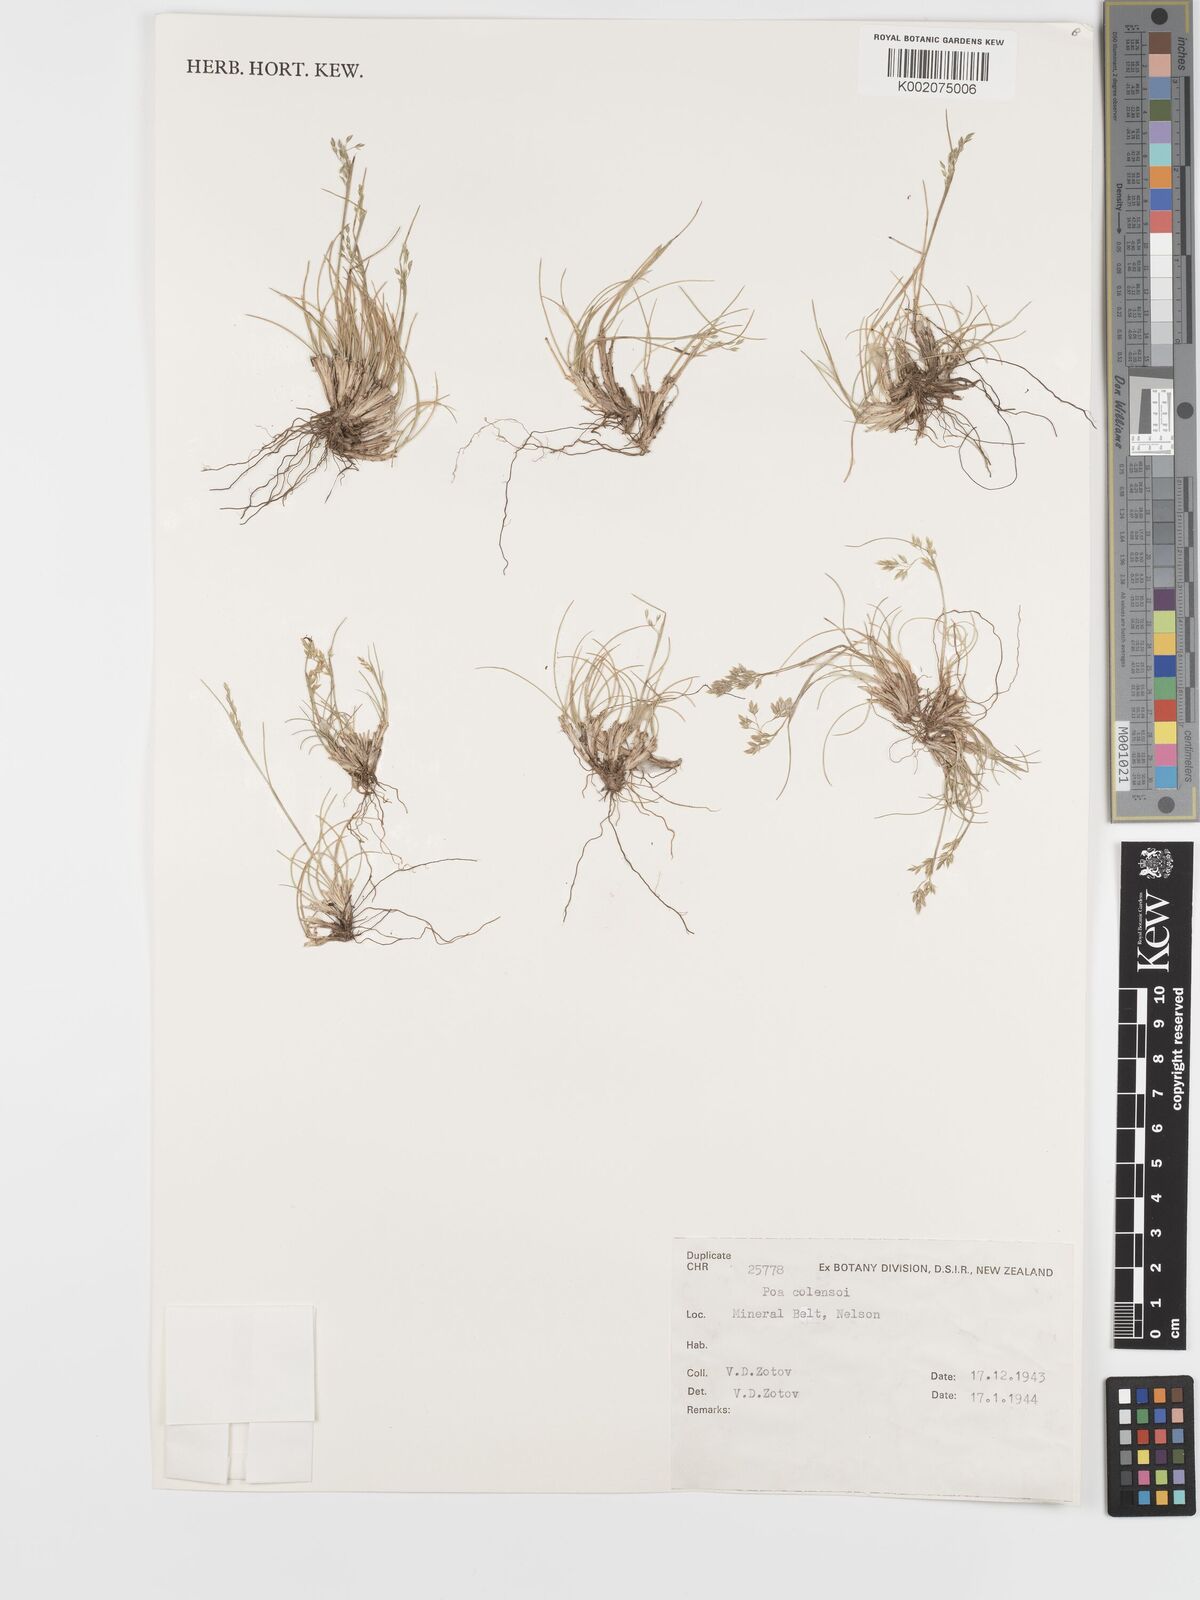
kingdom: Plantae
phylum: Tracheophyta
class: Liliopsida
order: Poales
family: Poaceae
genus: Poa
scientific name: Poa colensoi
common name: Blue tussock
